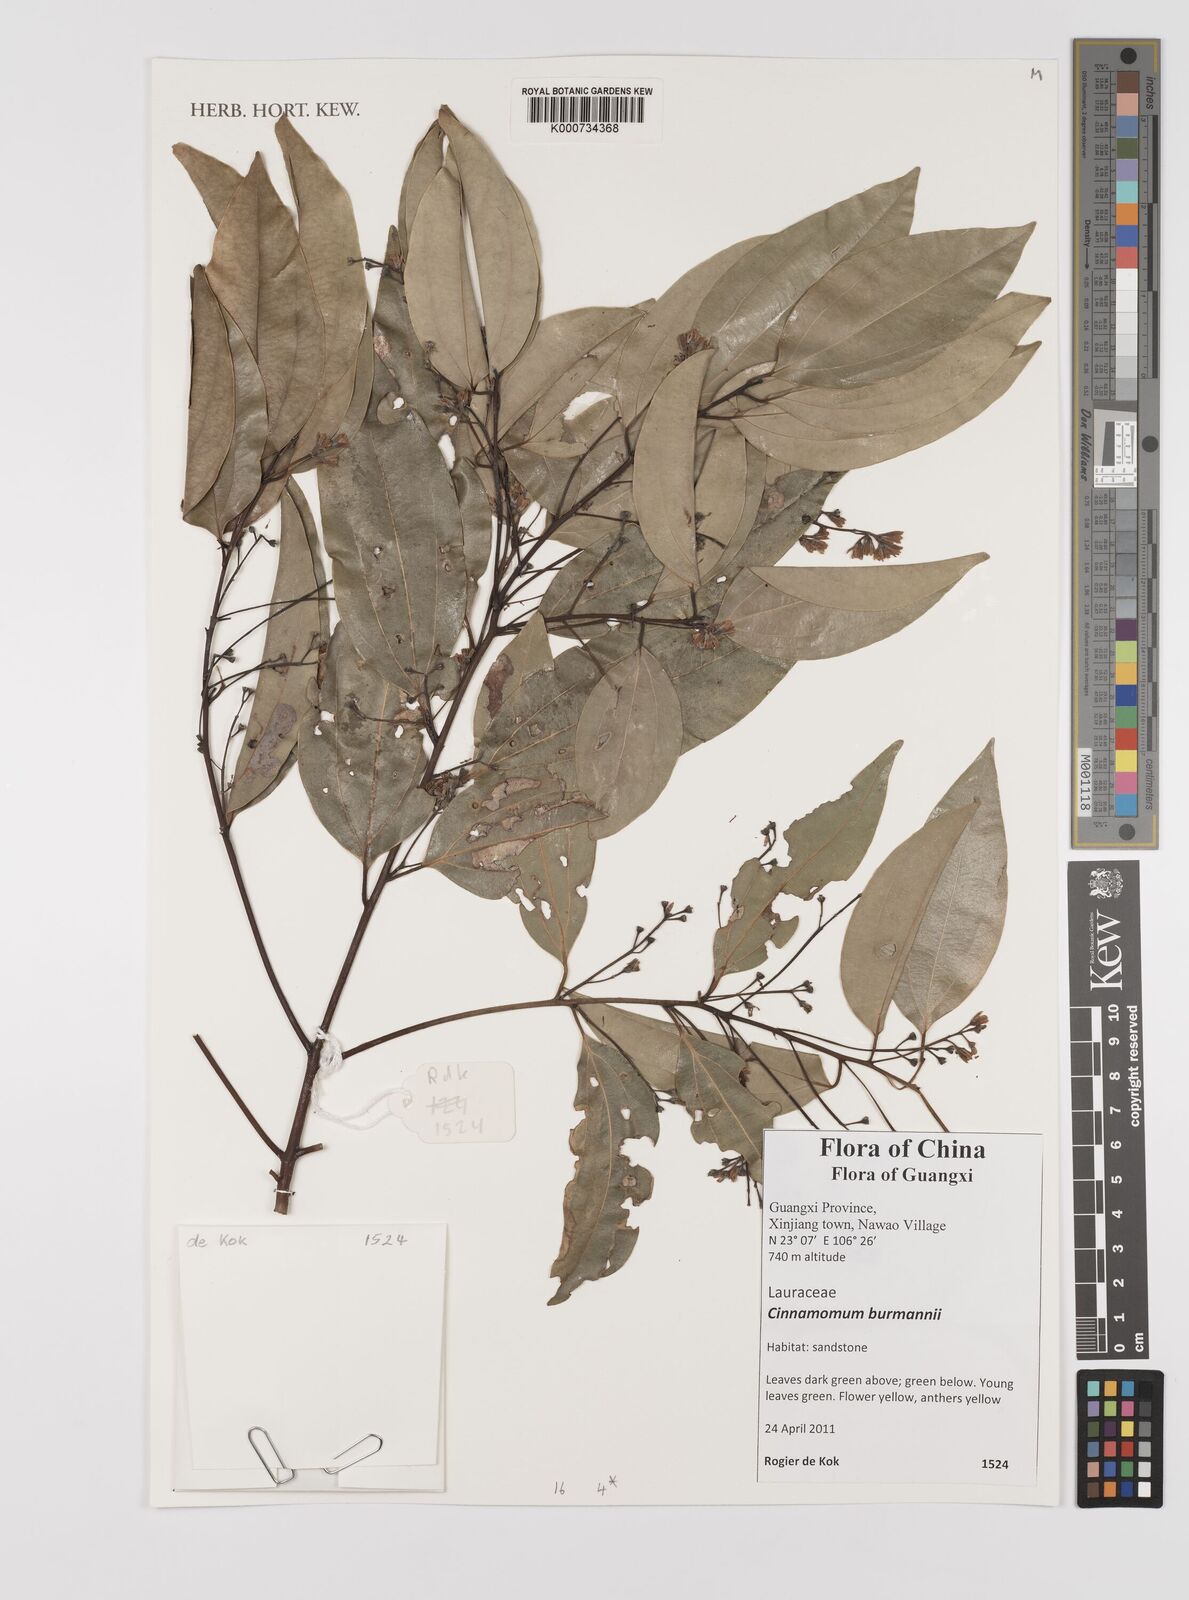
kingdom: Plantae
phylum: Tracheophyta
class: Magnoliopsida
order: Laurales
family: Lauraceae
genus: Cinnamomum
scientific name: Cinnamomum burmanni
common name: Padang cassia
